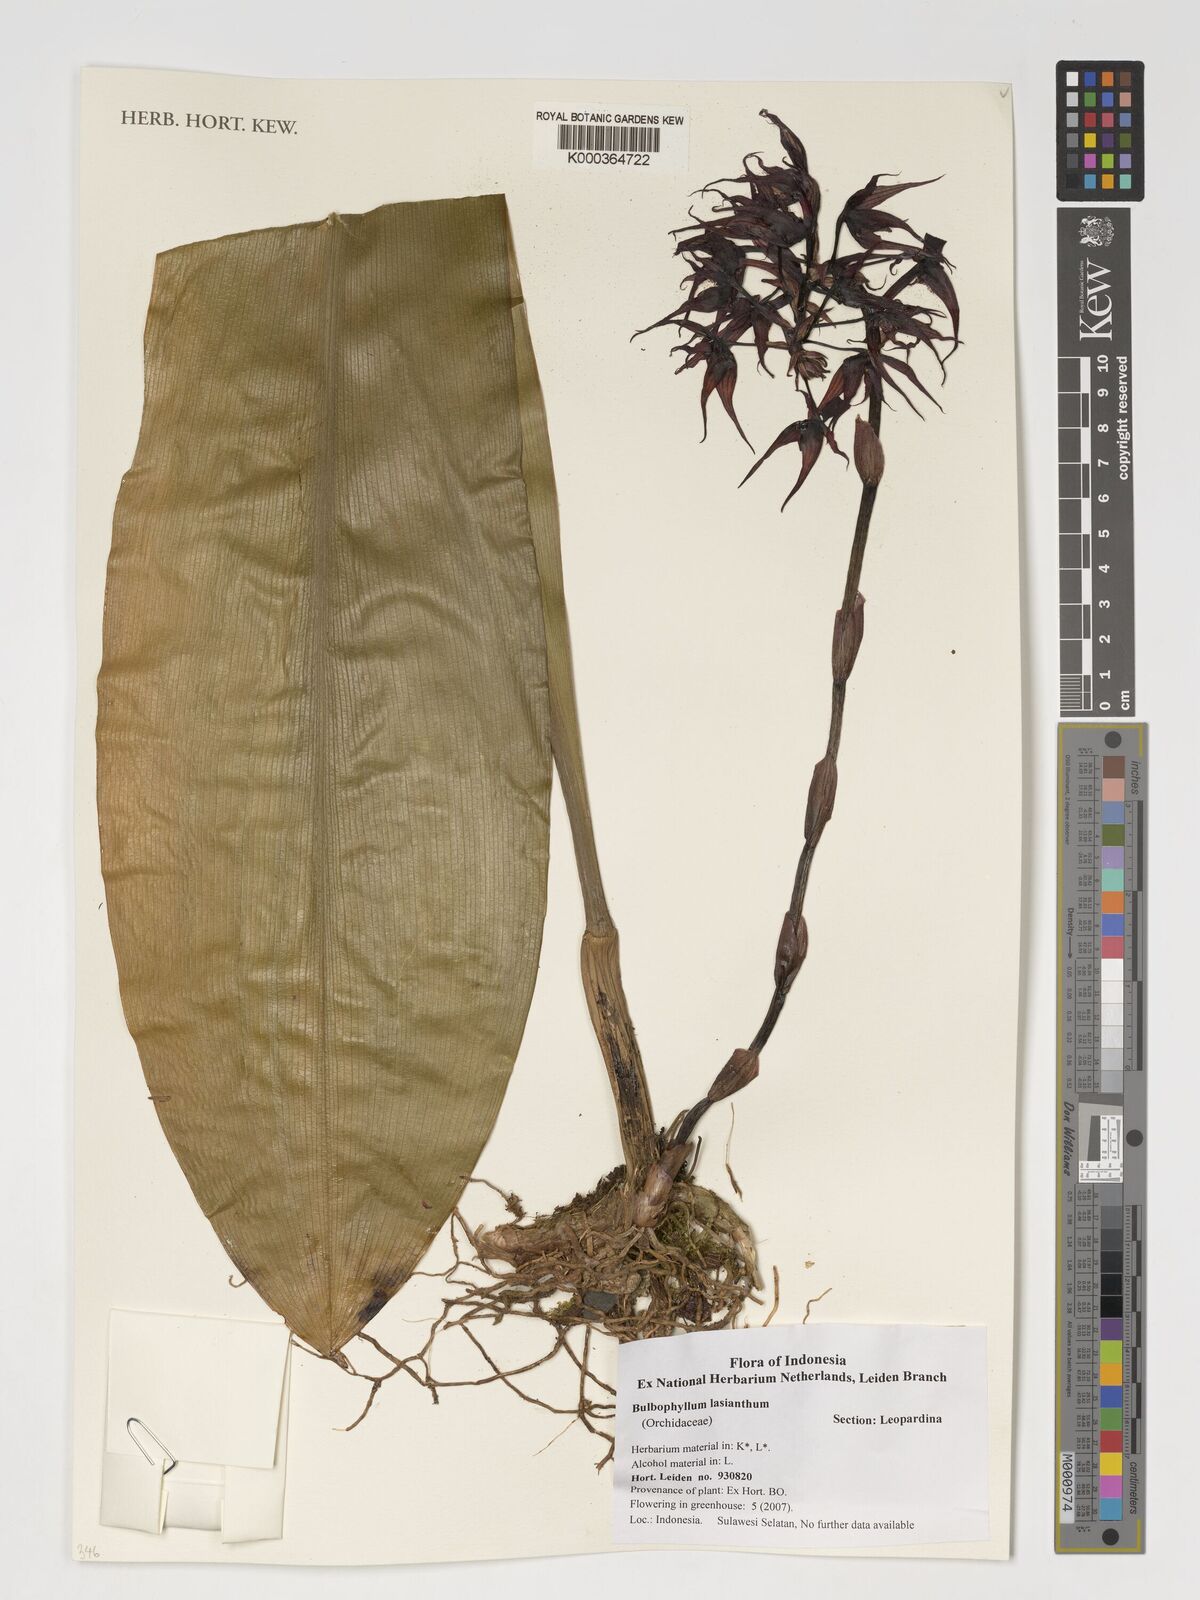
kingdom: Plantae
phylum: Tracheophyta
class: Liliopsida
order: Asparagales
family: Orchidaceae
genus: Bulbophyllum
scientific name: Bulbophyllum lasianthum
